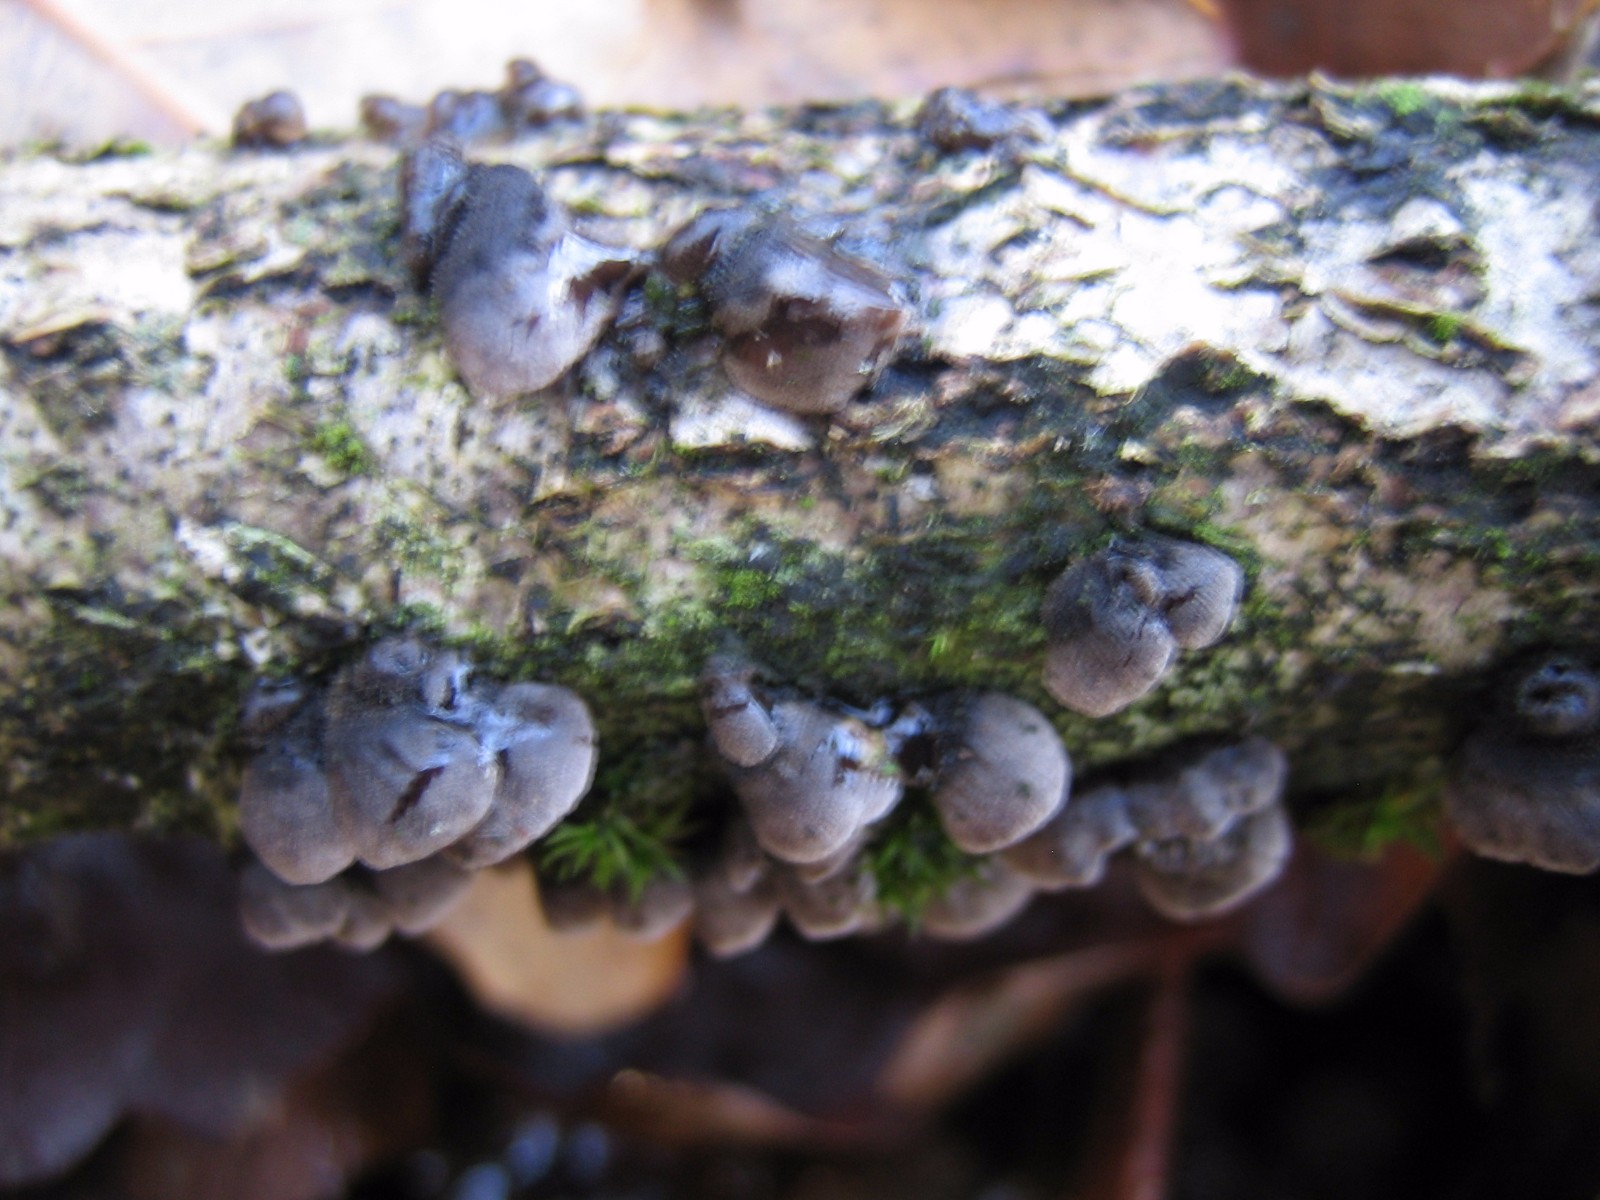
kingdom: Fungi
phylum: Basidiomycota
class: Agaricomycetes
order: Agaricales
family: Pleurotaceae
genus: Resupinatus
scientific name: Resupinatus trichotis
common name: mørkfiltet barkhat
